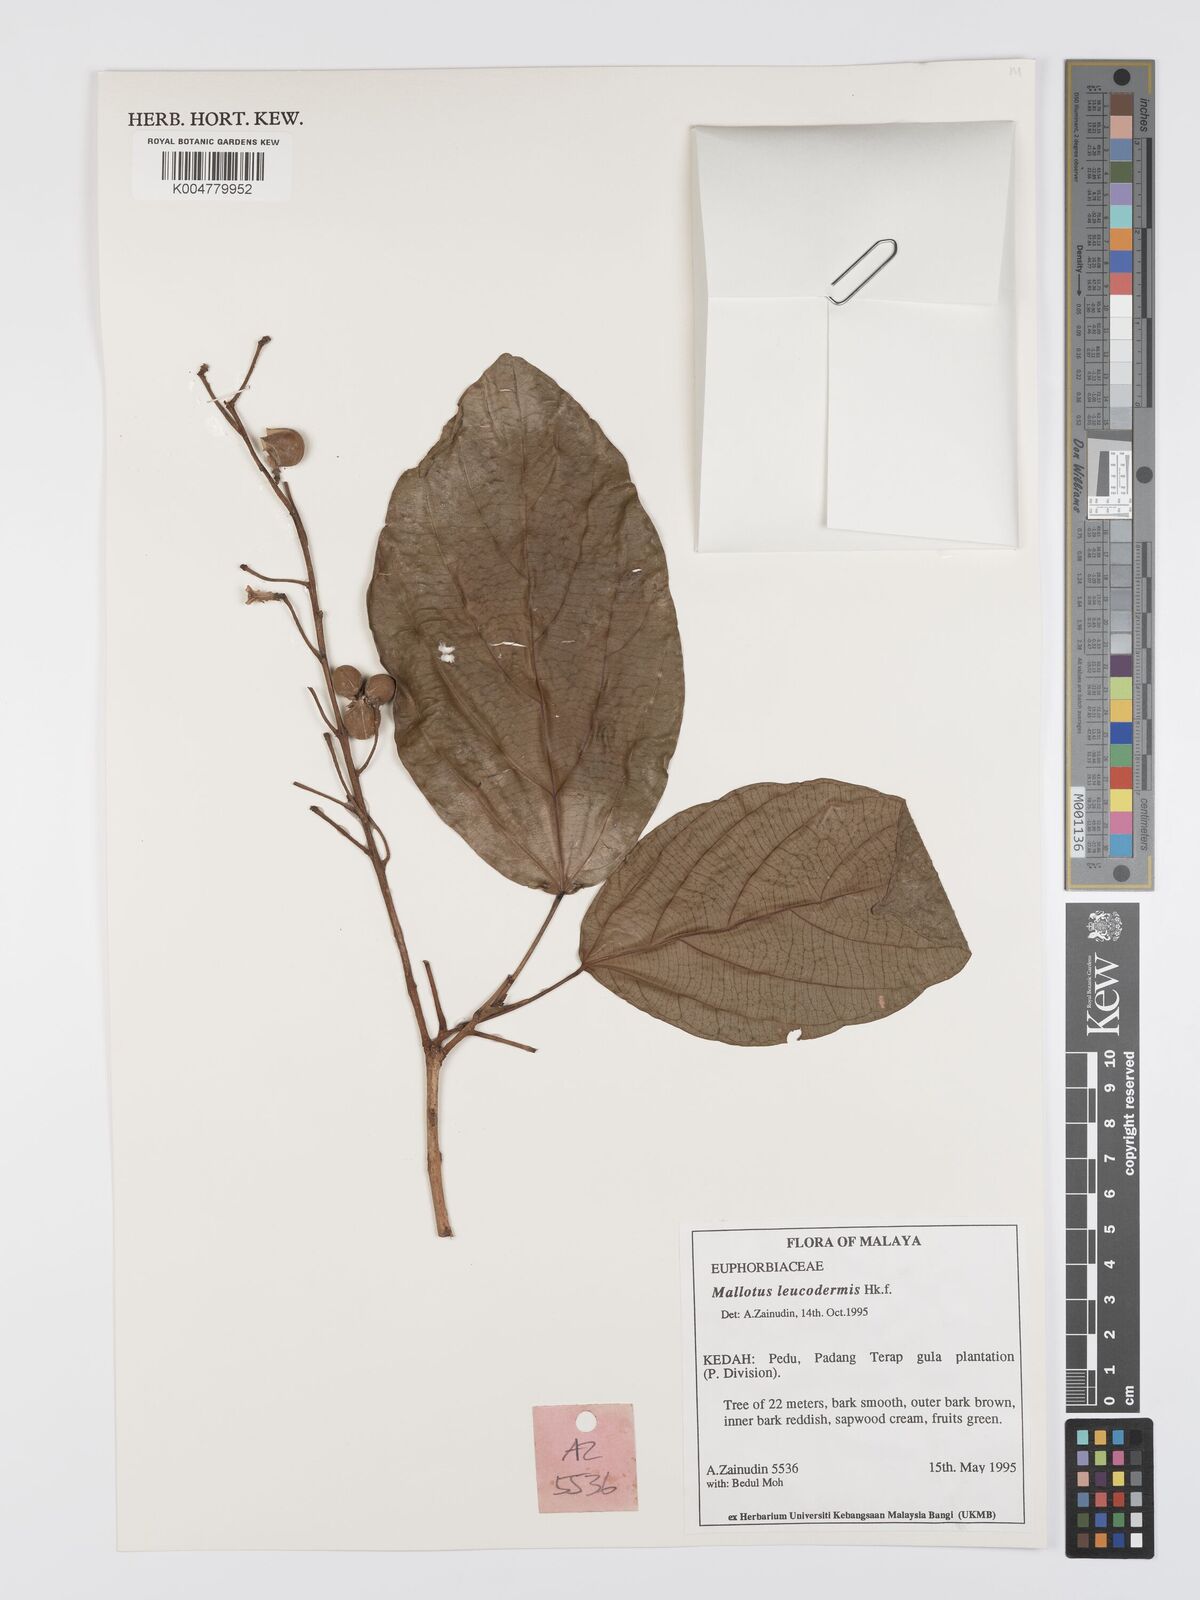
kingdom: Plantae
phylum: Tracheophyta
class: Magnoliopsida
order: Malpighiales
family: Euphorbiaceae
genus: Mallotus
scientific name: Mallotus leucodermis
